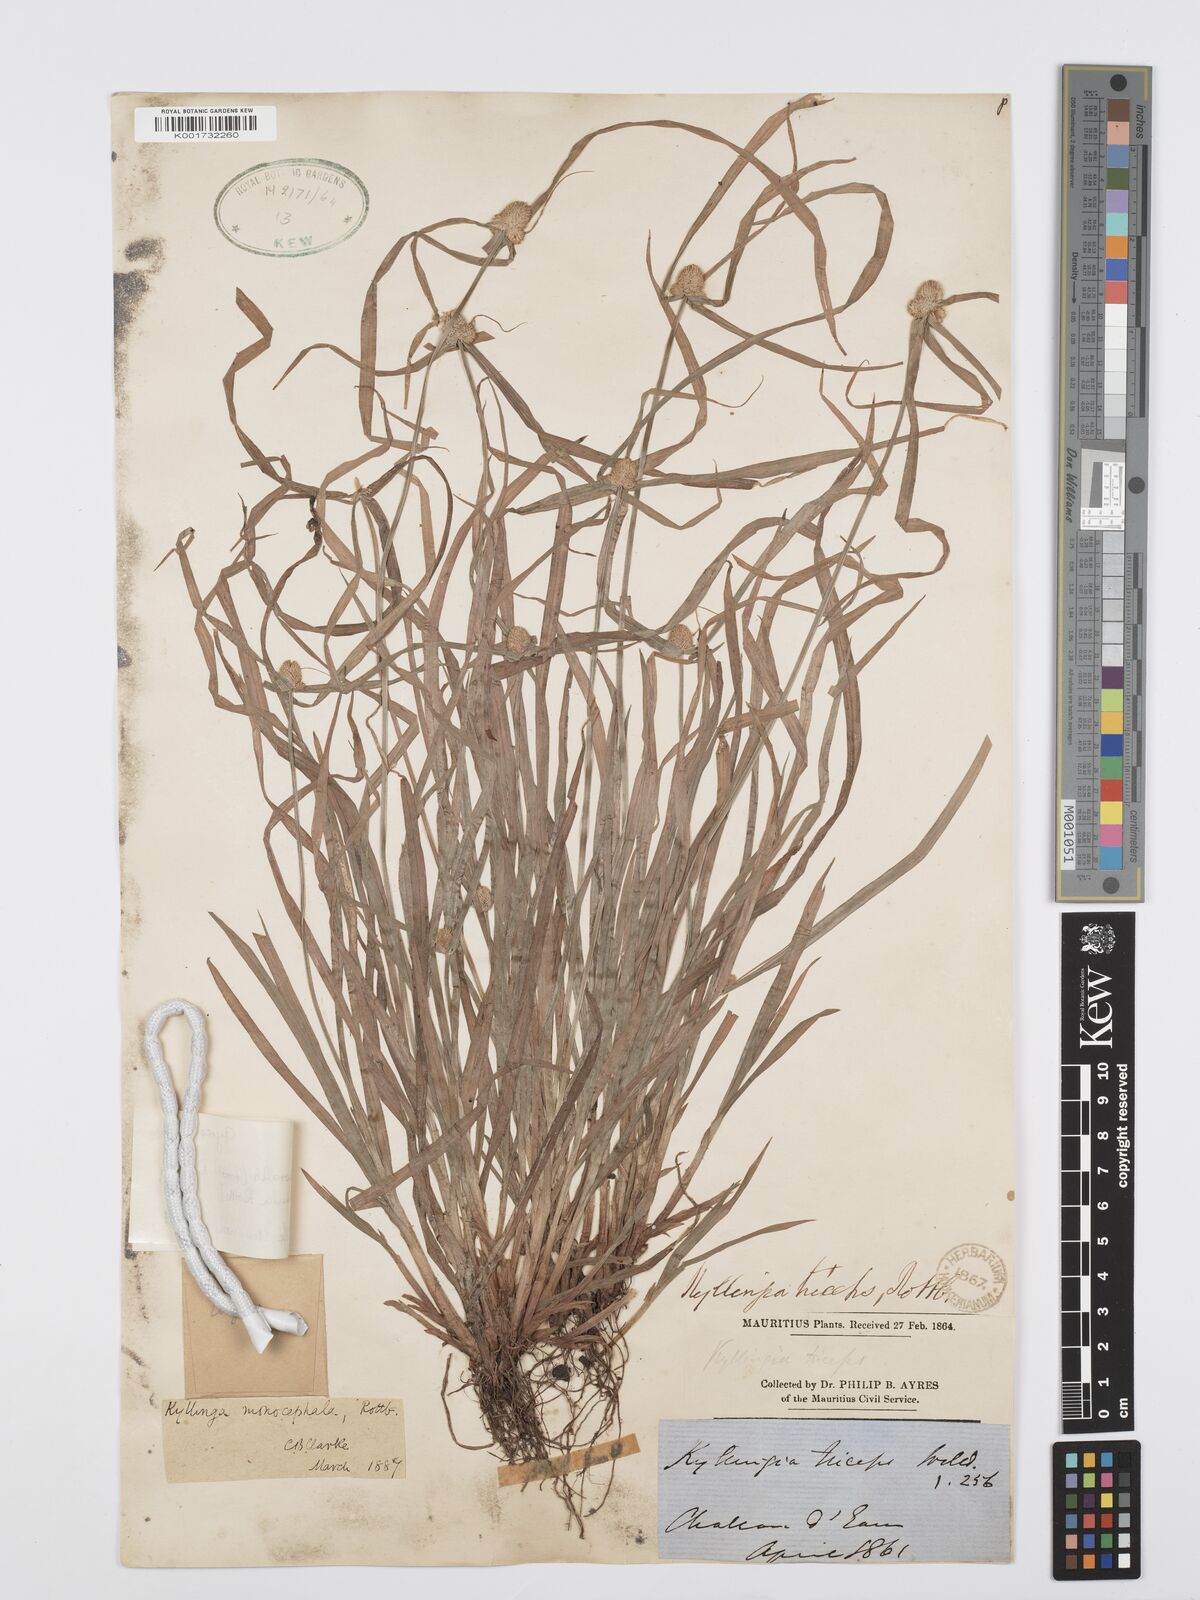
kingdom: Plantae
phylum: Tracheophyta
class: Liliopsida
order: Poales
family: Cyperaceae
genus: Cyperus
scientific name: Cyperus nemoralis
